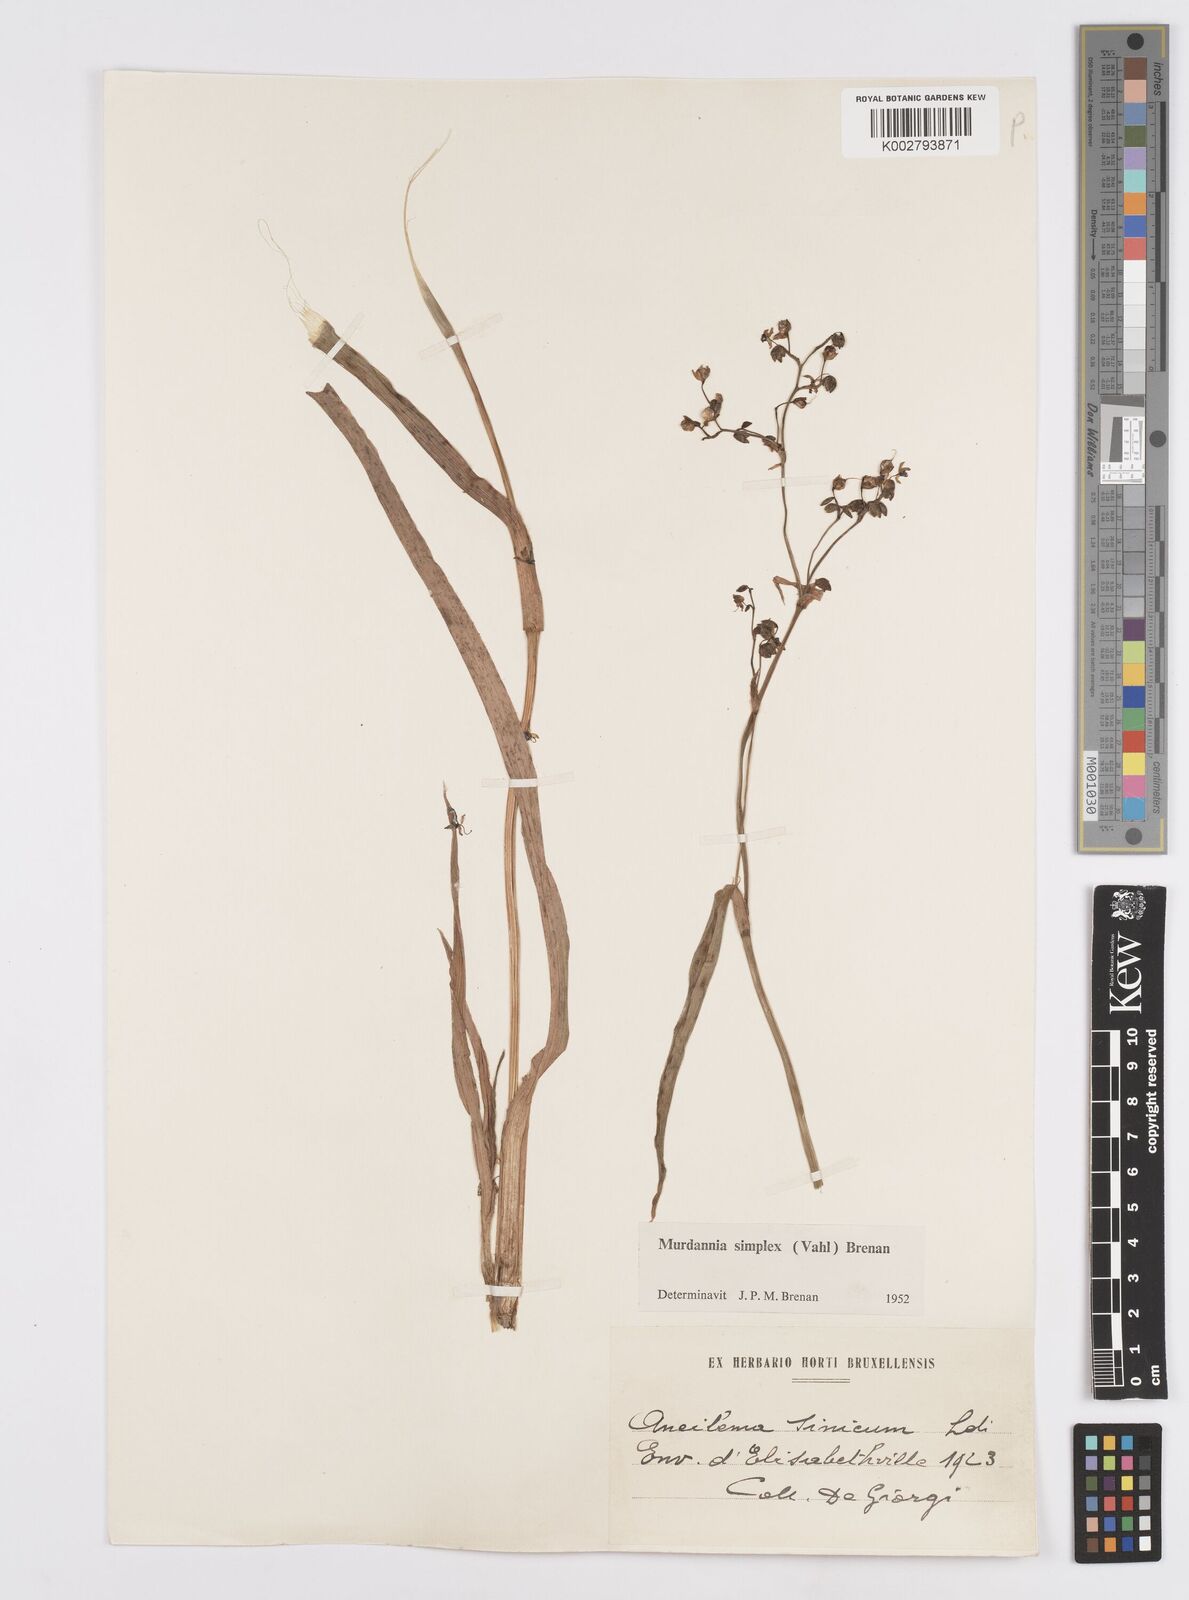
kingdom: Plantae
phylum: Tracheophyta
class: Liliopsida
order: Commelinales
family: Commelinaceae
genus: Murdannia
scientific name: Murdannia simplex
